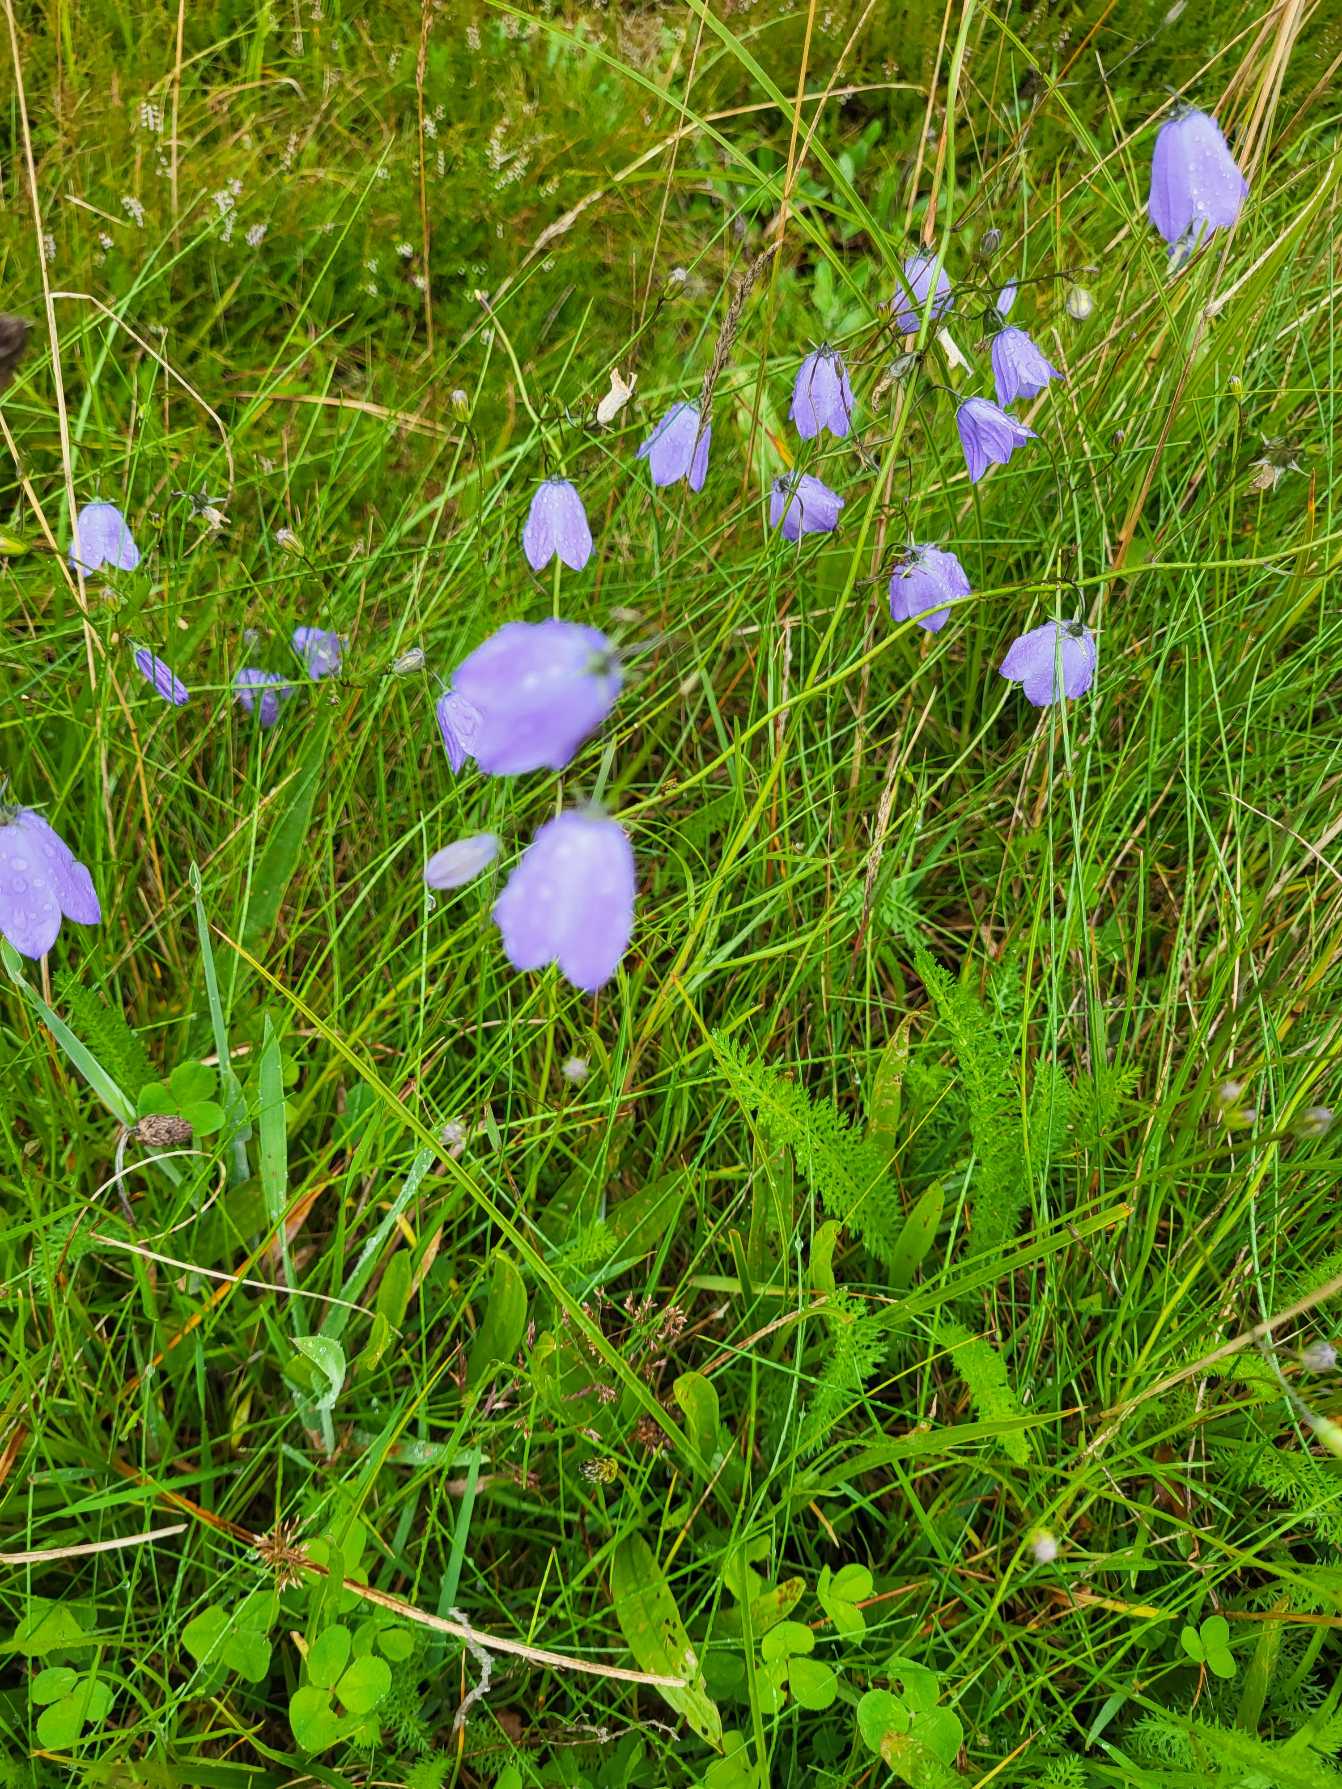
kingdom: Plantae
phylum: Tracheophyta
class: Magnoliopsida
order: Asterales
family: Campanulaceae
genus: Campanula
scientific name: Campanula rotundifolia
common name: Liden klokke
